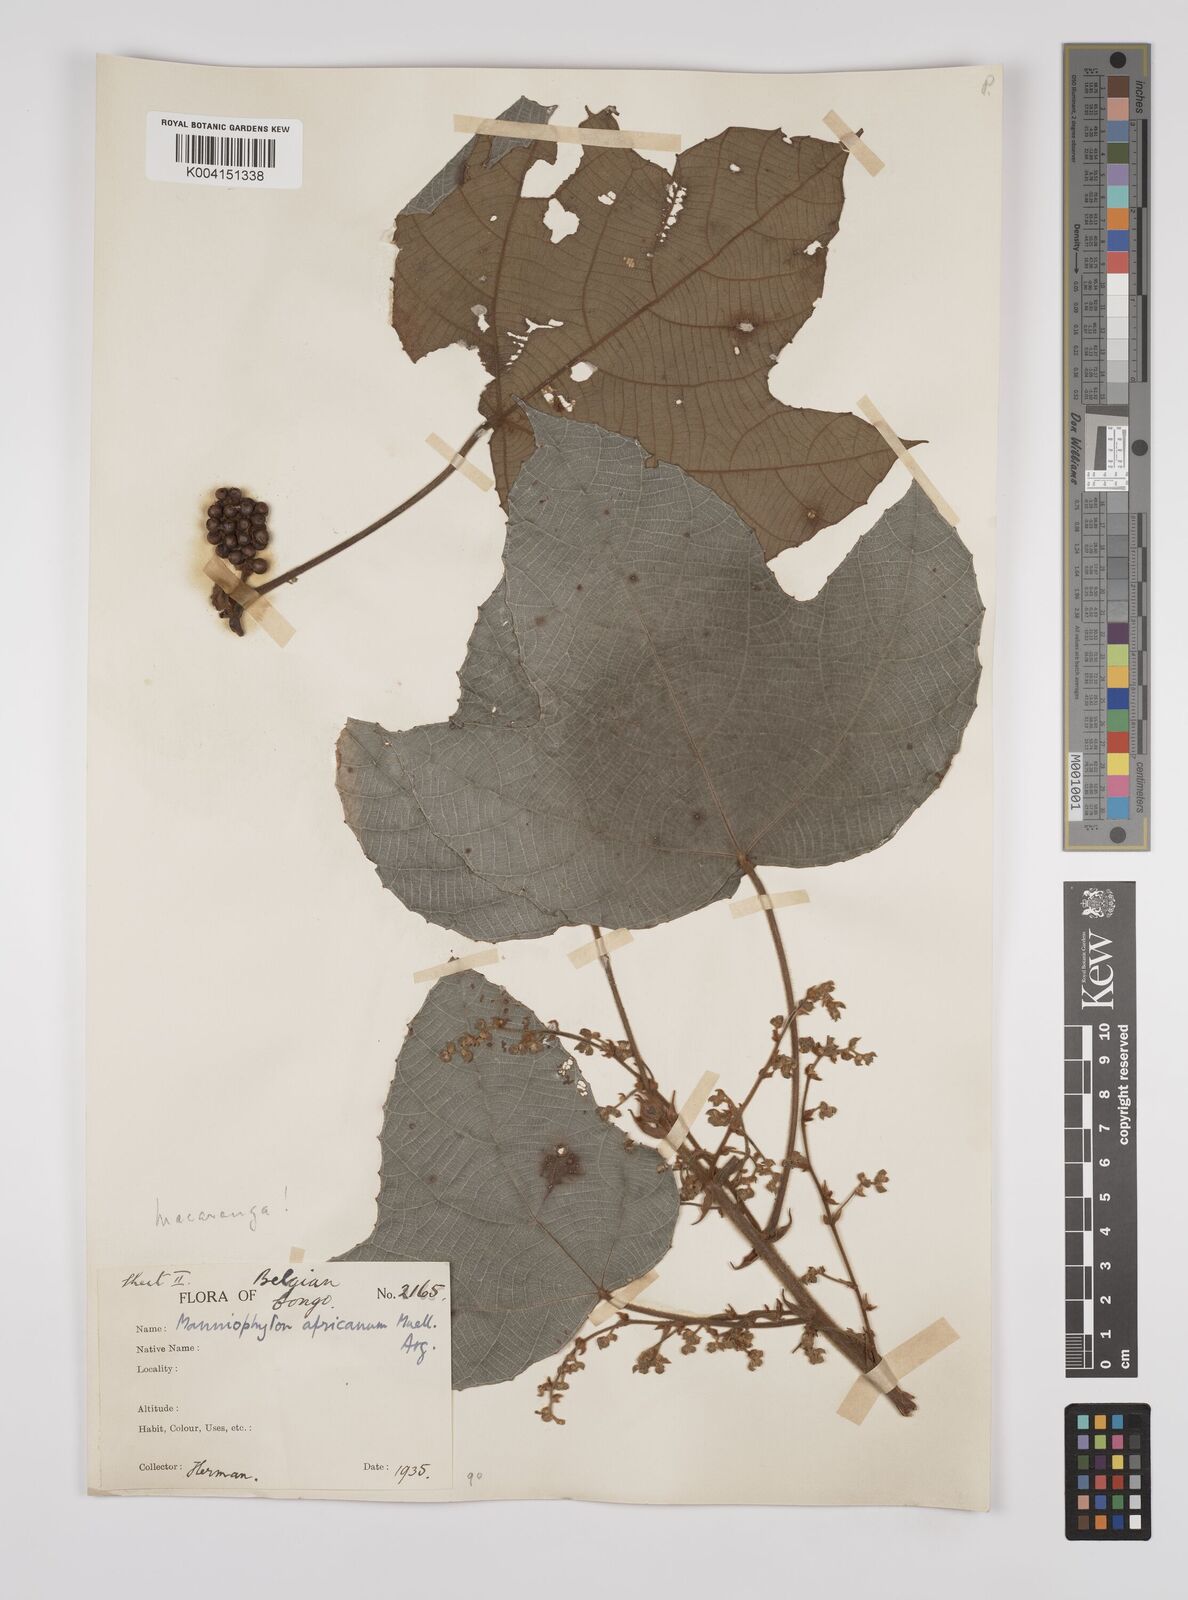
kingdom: Plantae
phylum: Tracheophyta
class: Magnoliopsida
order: Malpighiales
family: Euphorbiaceae
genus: Macaranga
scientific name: Macaranga angolensis
